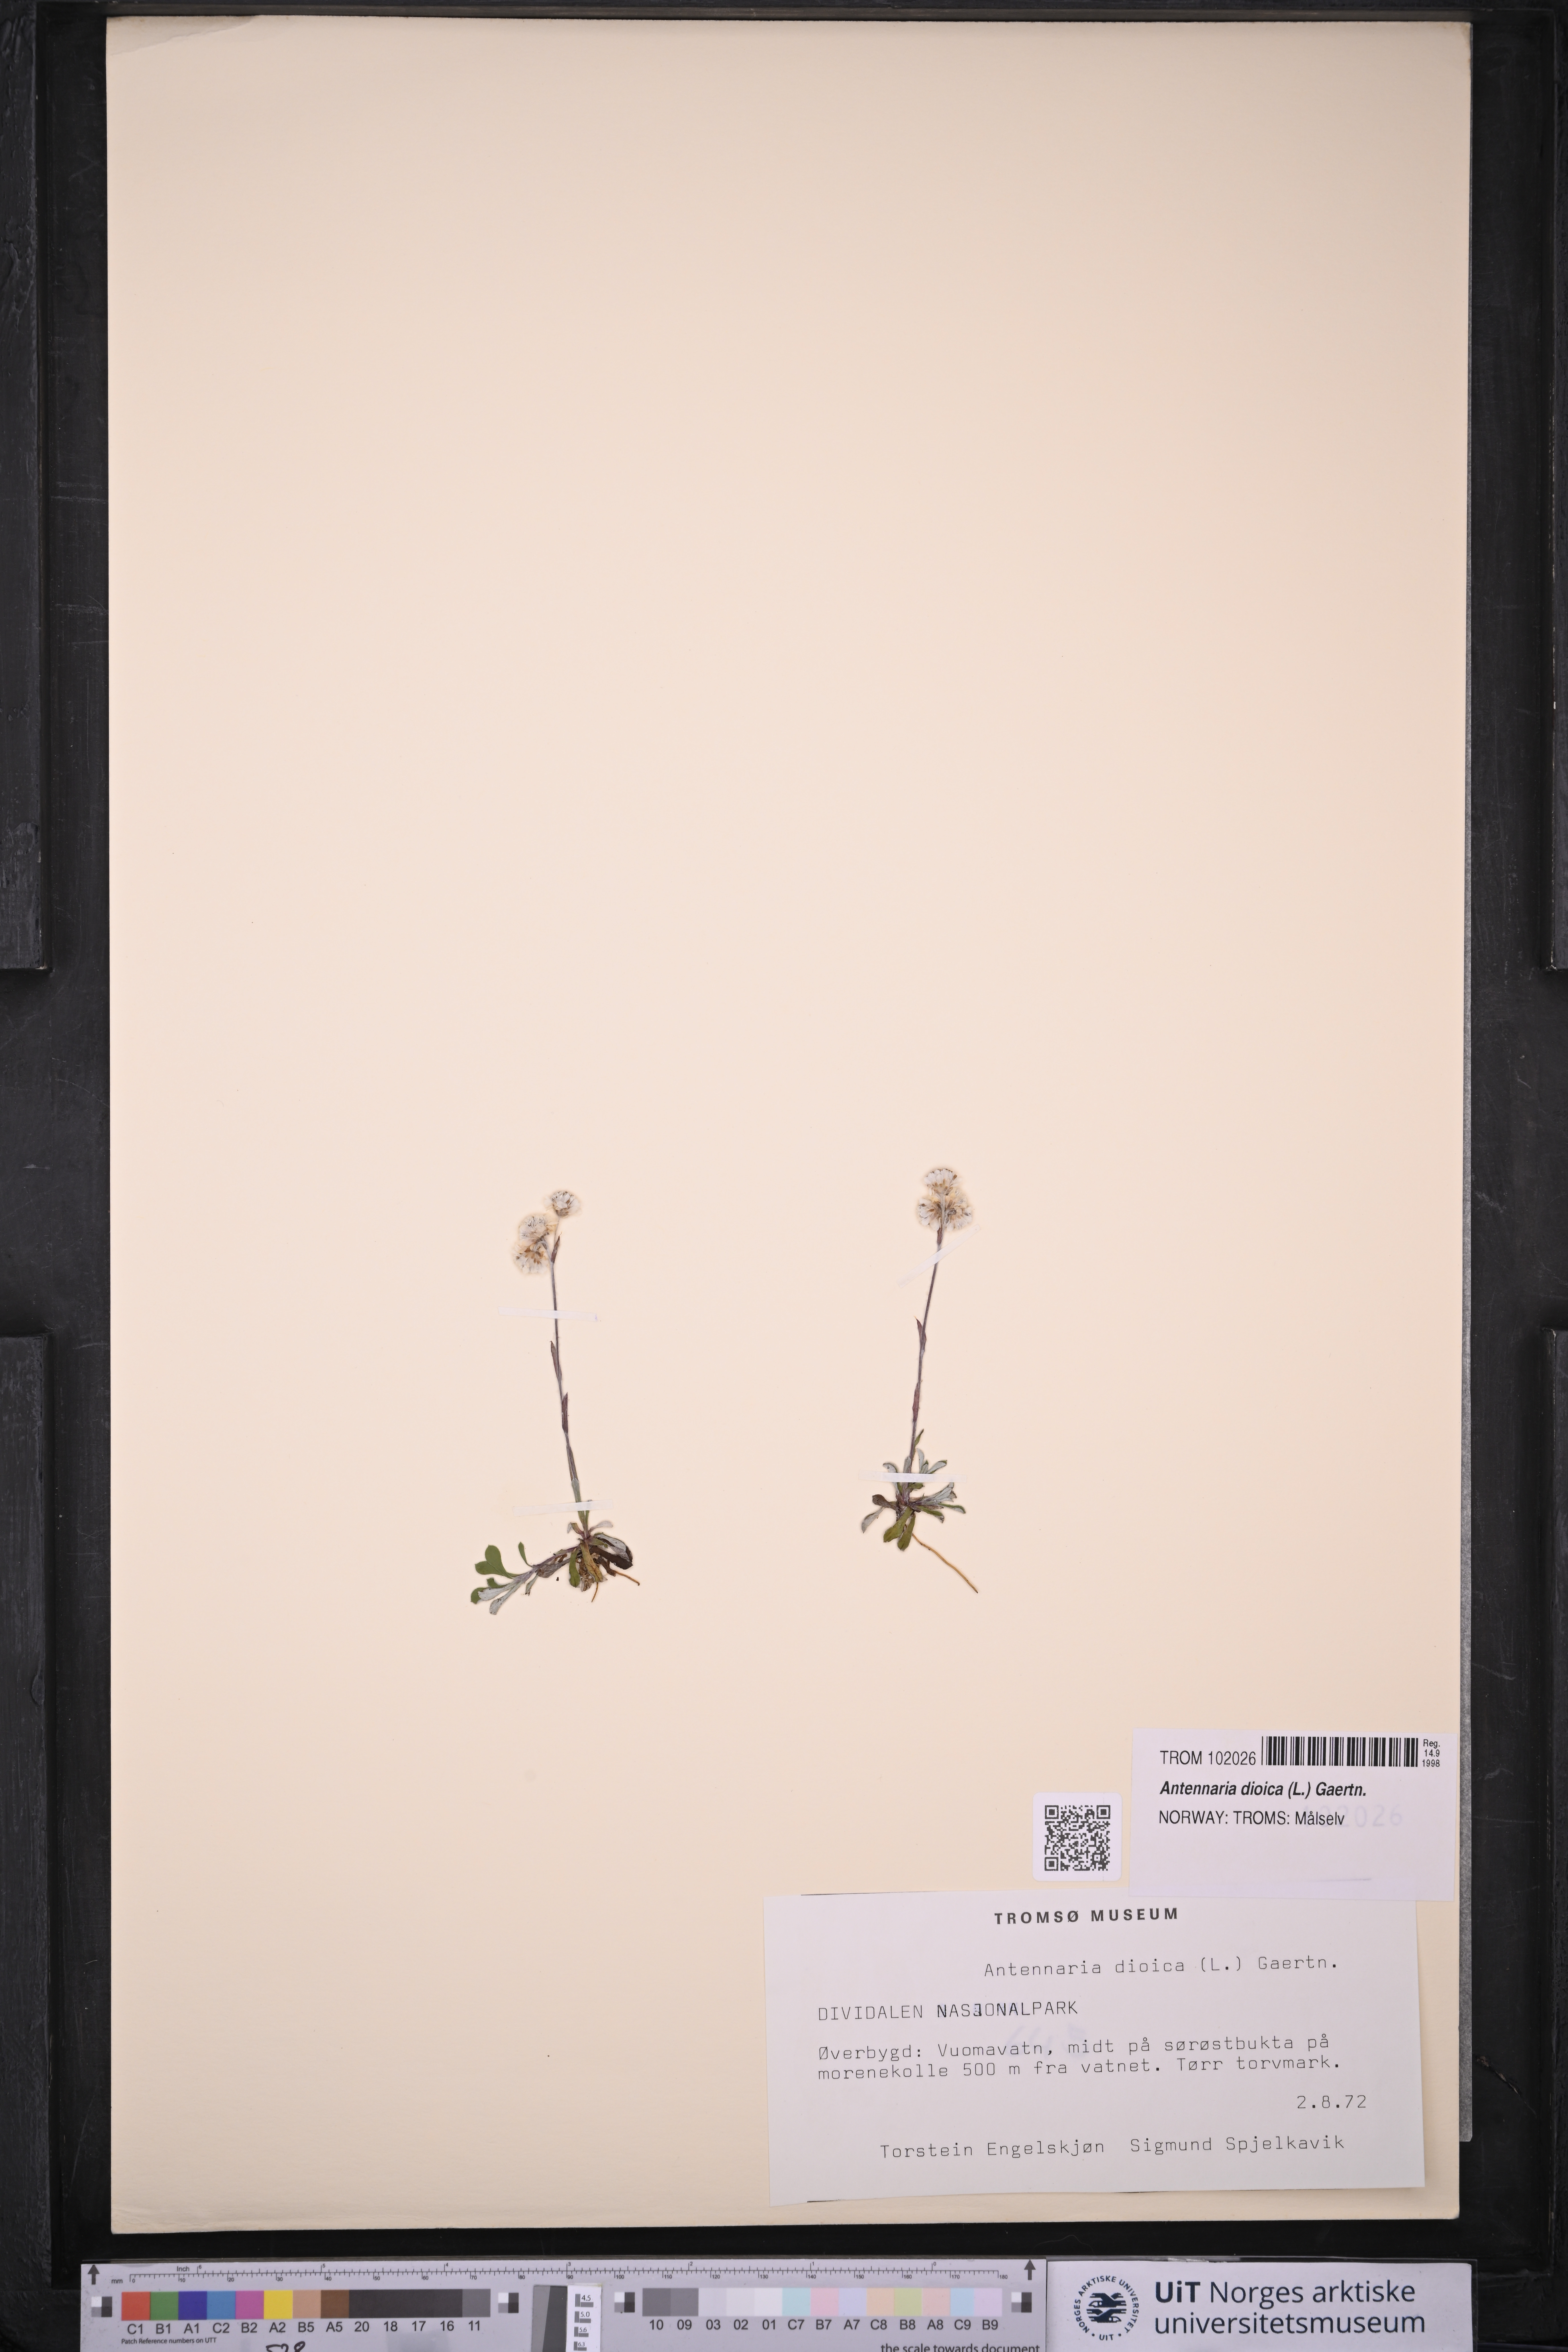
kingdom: Plantae
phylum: Tracheophyta
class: Magnoliopsida
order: Asterales
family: Asteraceae
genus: Antennaria
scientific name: Antennaria dioica
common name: Mountain everlasting
